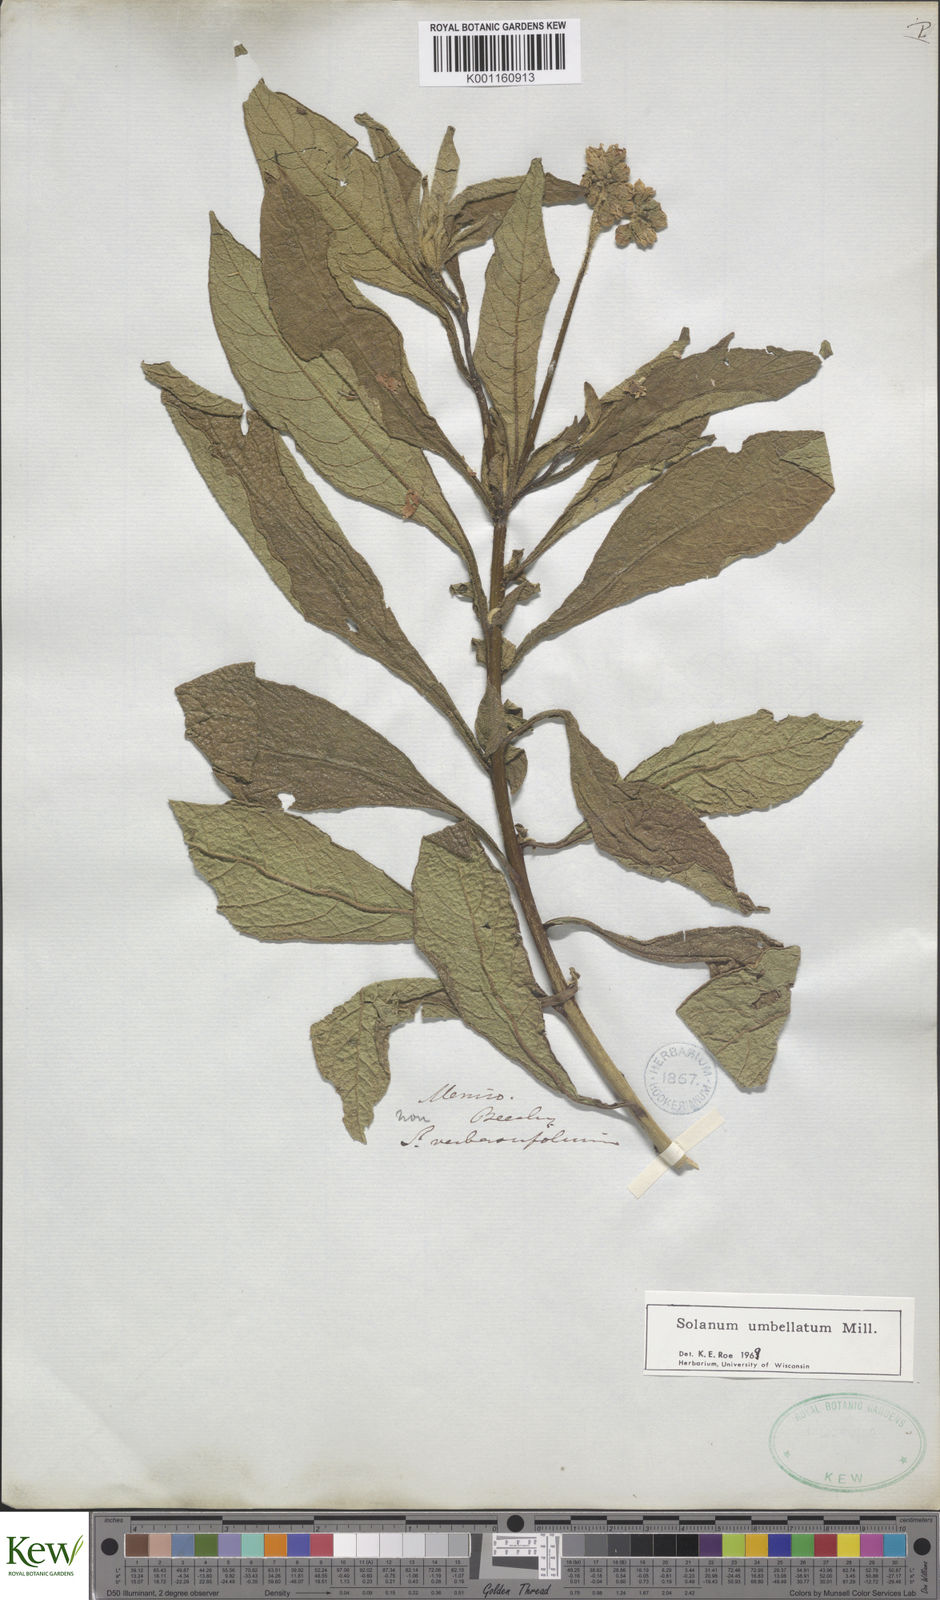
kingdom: Plantae
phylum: Tracheophyta
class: Magnoliopsida
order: Solanales
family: Solanaceae
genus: Solanum
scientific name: Solanum umbellatum
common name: Nightshade
